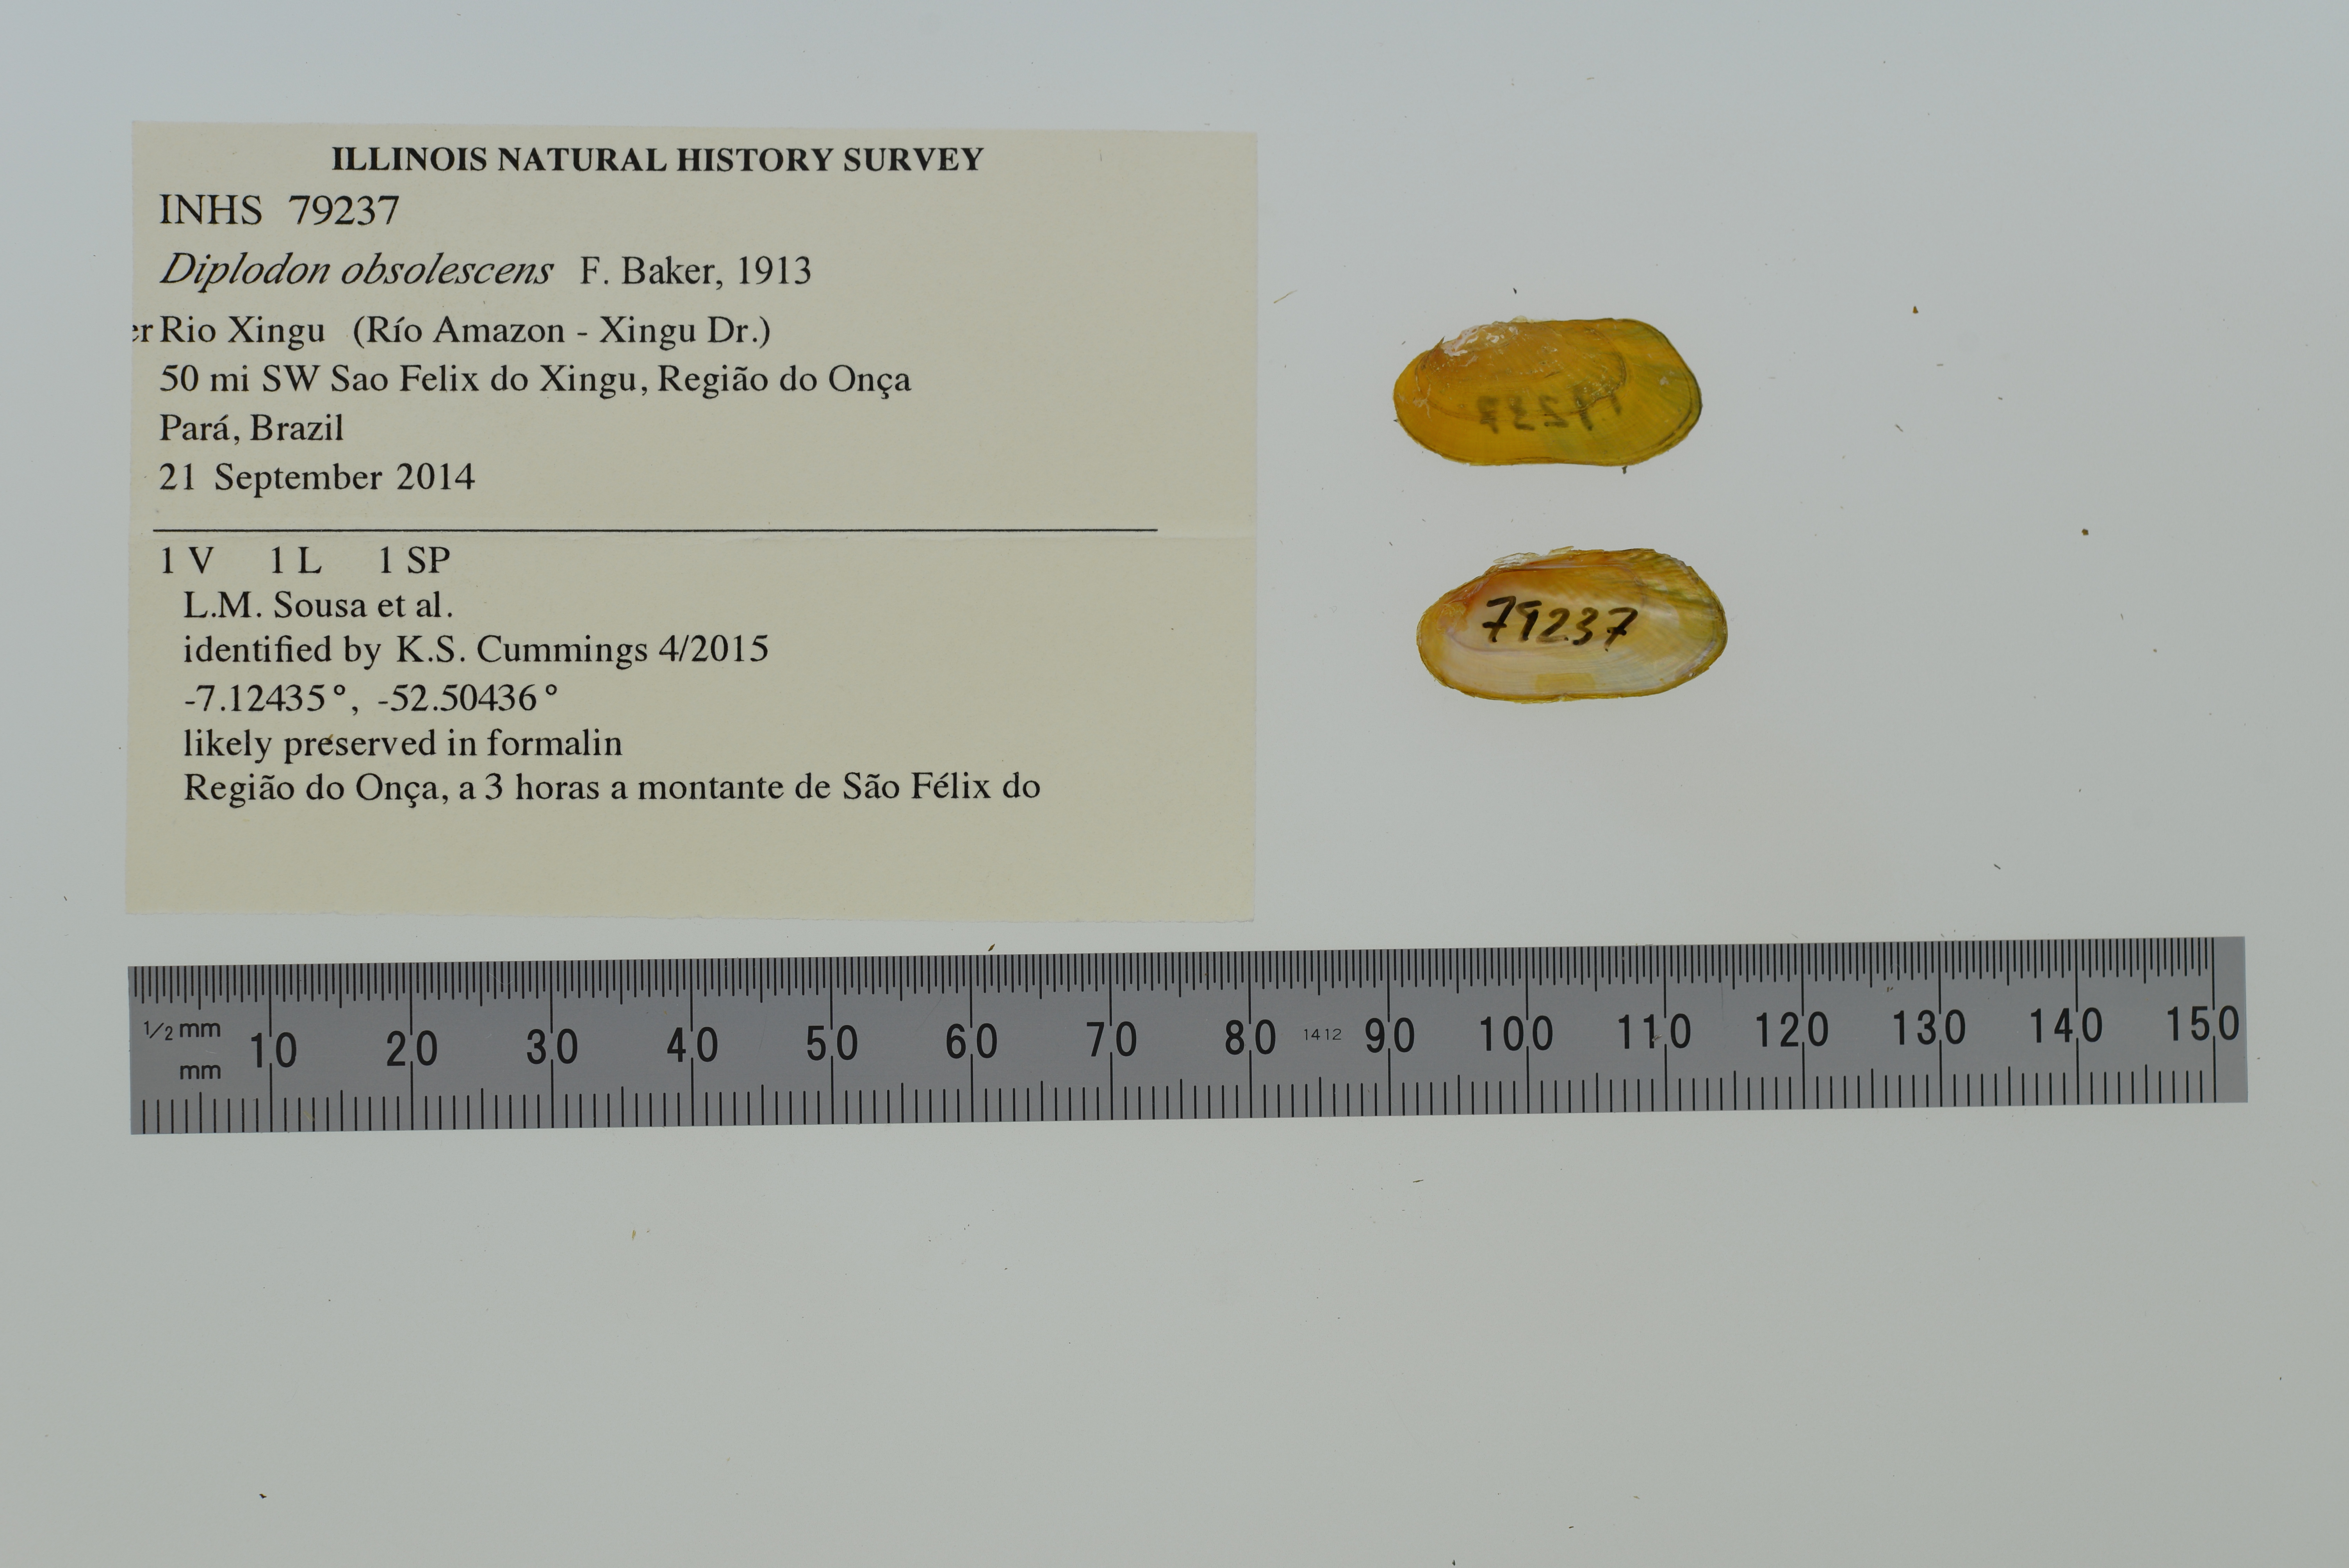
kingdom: Animalia
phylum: Mollusca
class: Bivalvia
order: Unionida
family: Hyriidae
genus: Diplodon
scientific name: Diplodon obsolescens
